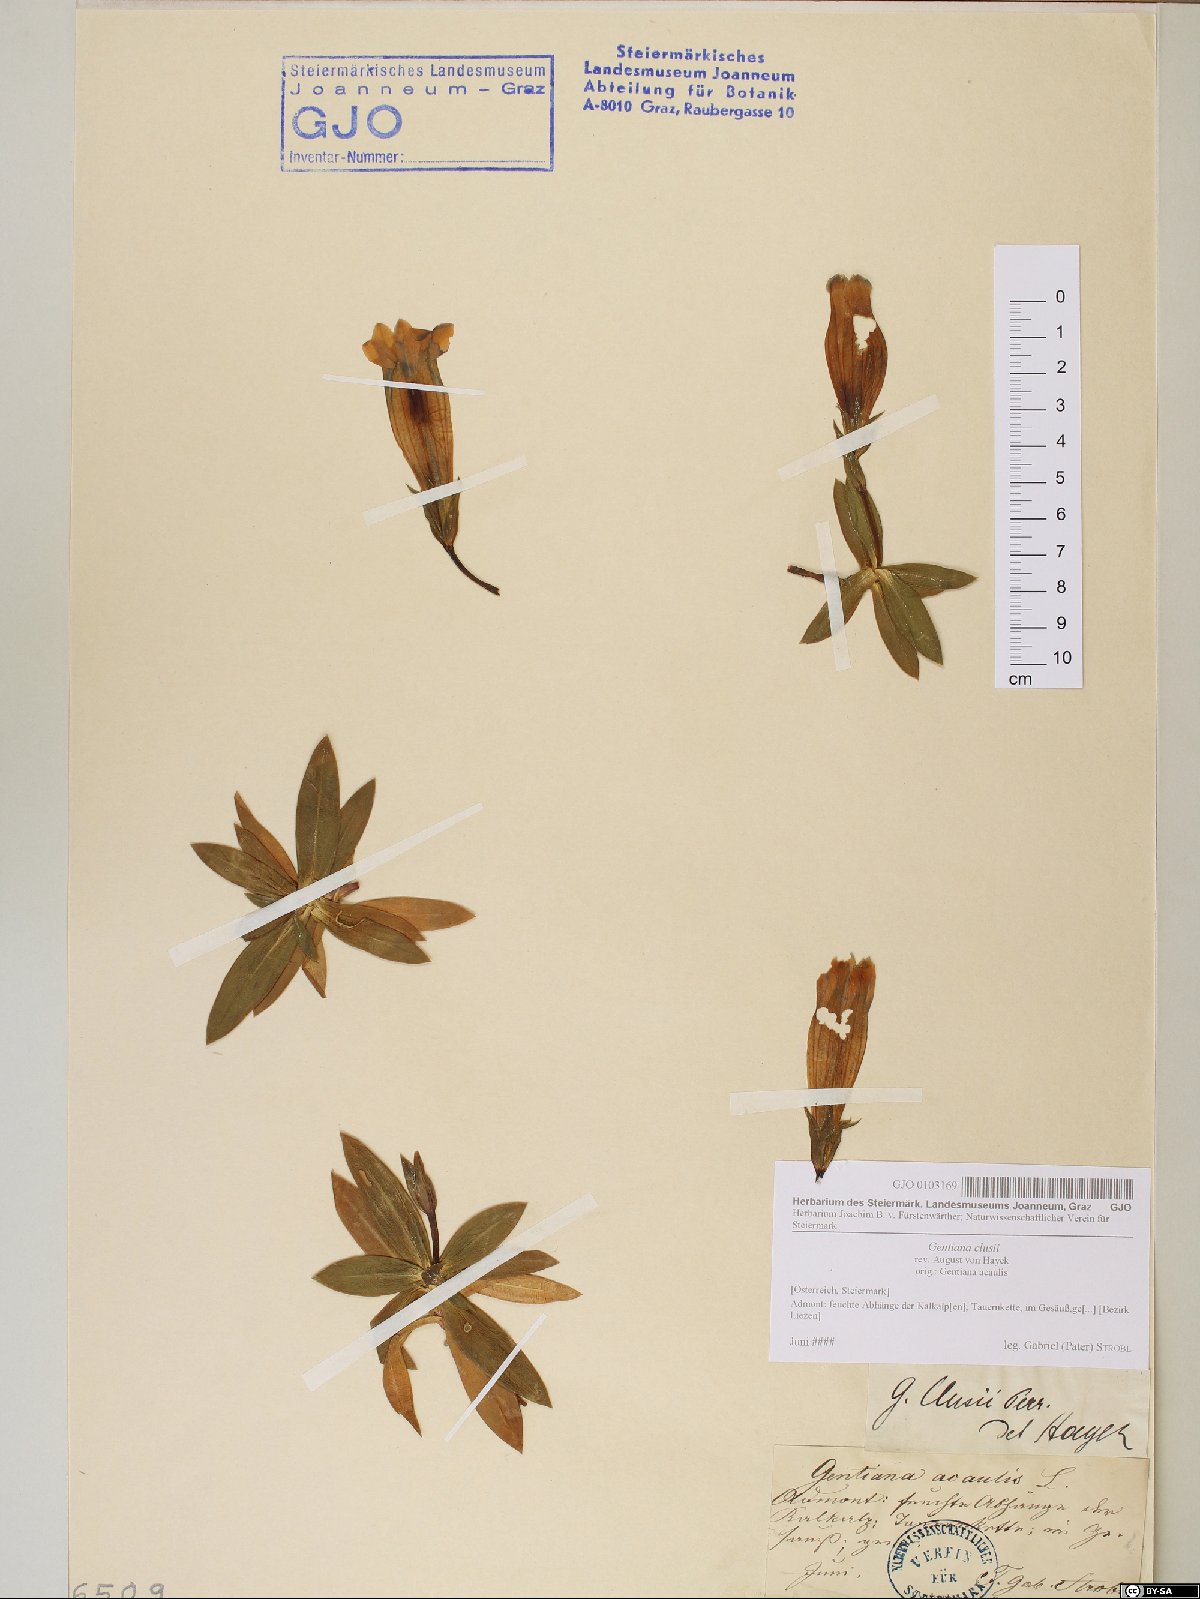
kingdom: Plantae
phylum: Tracheophyta
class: Magnoliopsida
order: Gentianales
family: Gentianaceae
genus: Gentiana
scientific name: Gentiana clusii
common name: Trumpet gentian
